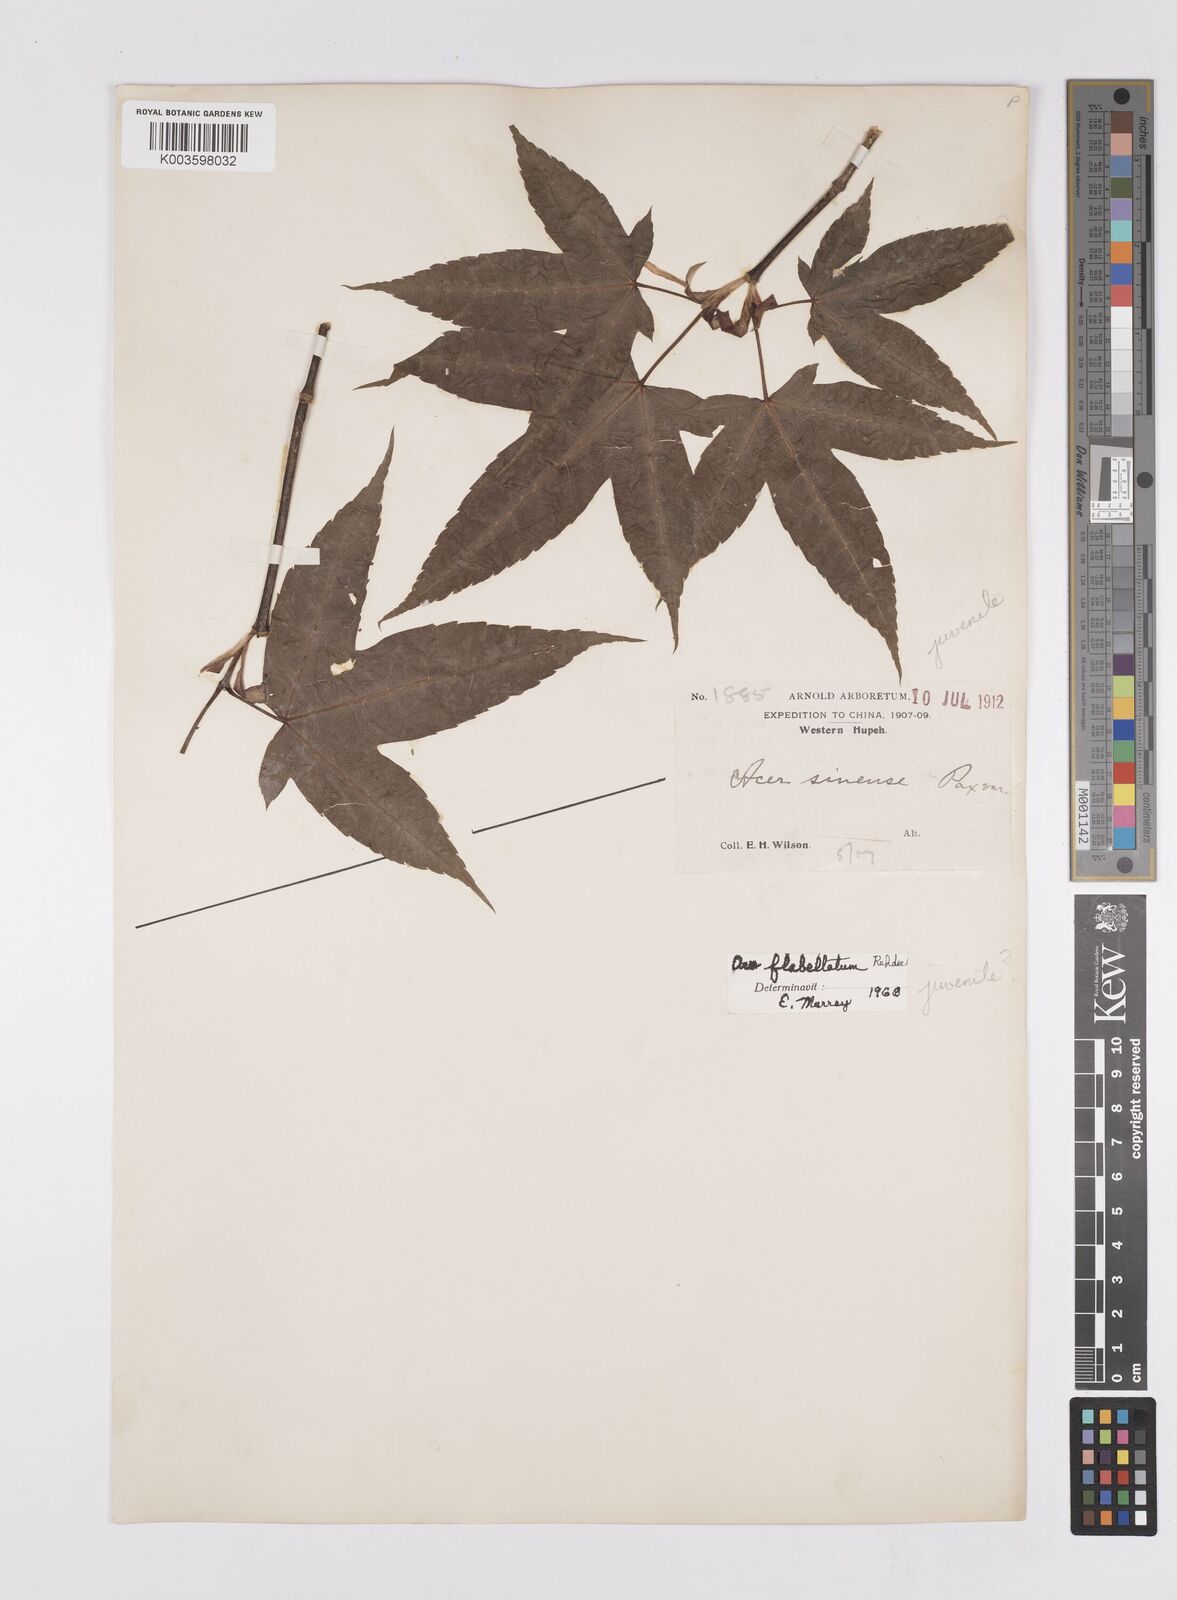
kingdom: Plantae
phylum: Tracheophyta
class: Magnoliopsida
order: Sapindales
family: Sapindaceae
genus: Acer
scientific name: Acer
